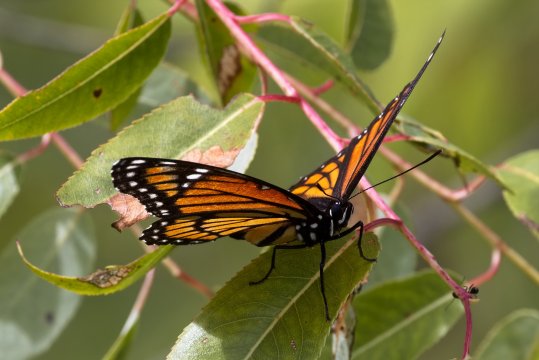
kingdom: Animalia
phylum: Arthropoda
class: Insecta
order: Lepidoptera
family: Nymphalidae
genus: Limenitis
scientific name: Limenitis archippus
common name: Viceroy
